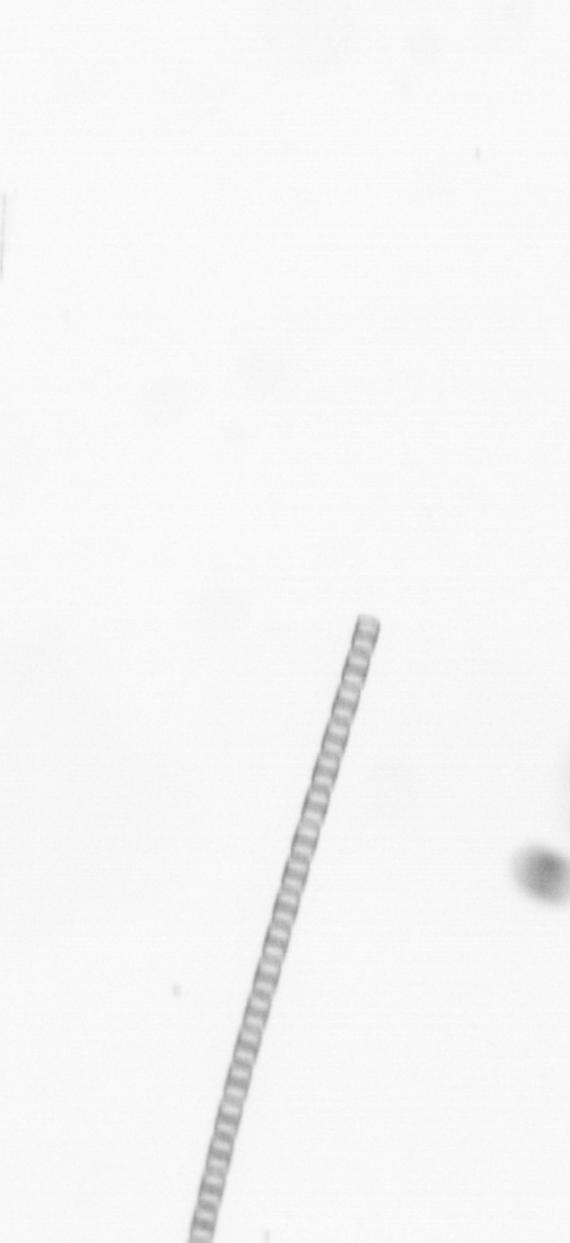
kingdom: Chromista
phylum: Ochrophyta
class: Bacillariophyceae
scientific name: Bacillariophyceae
